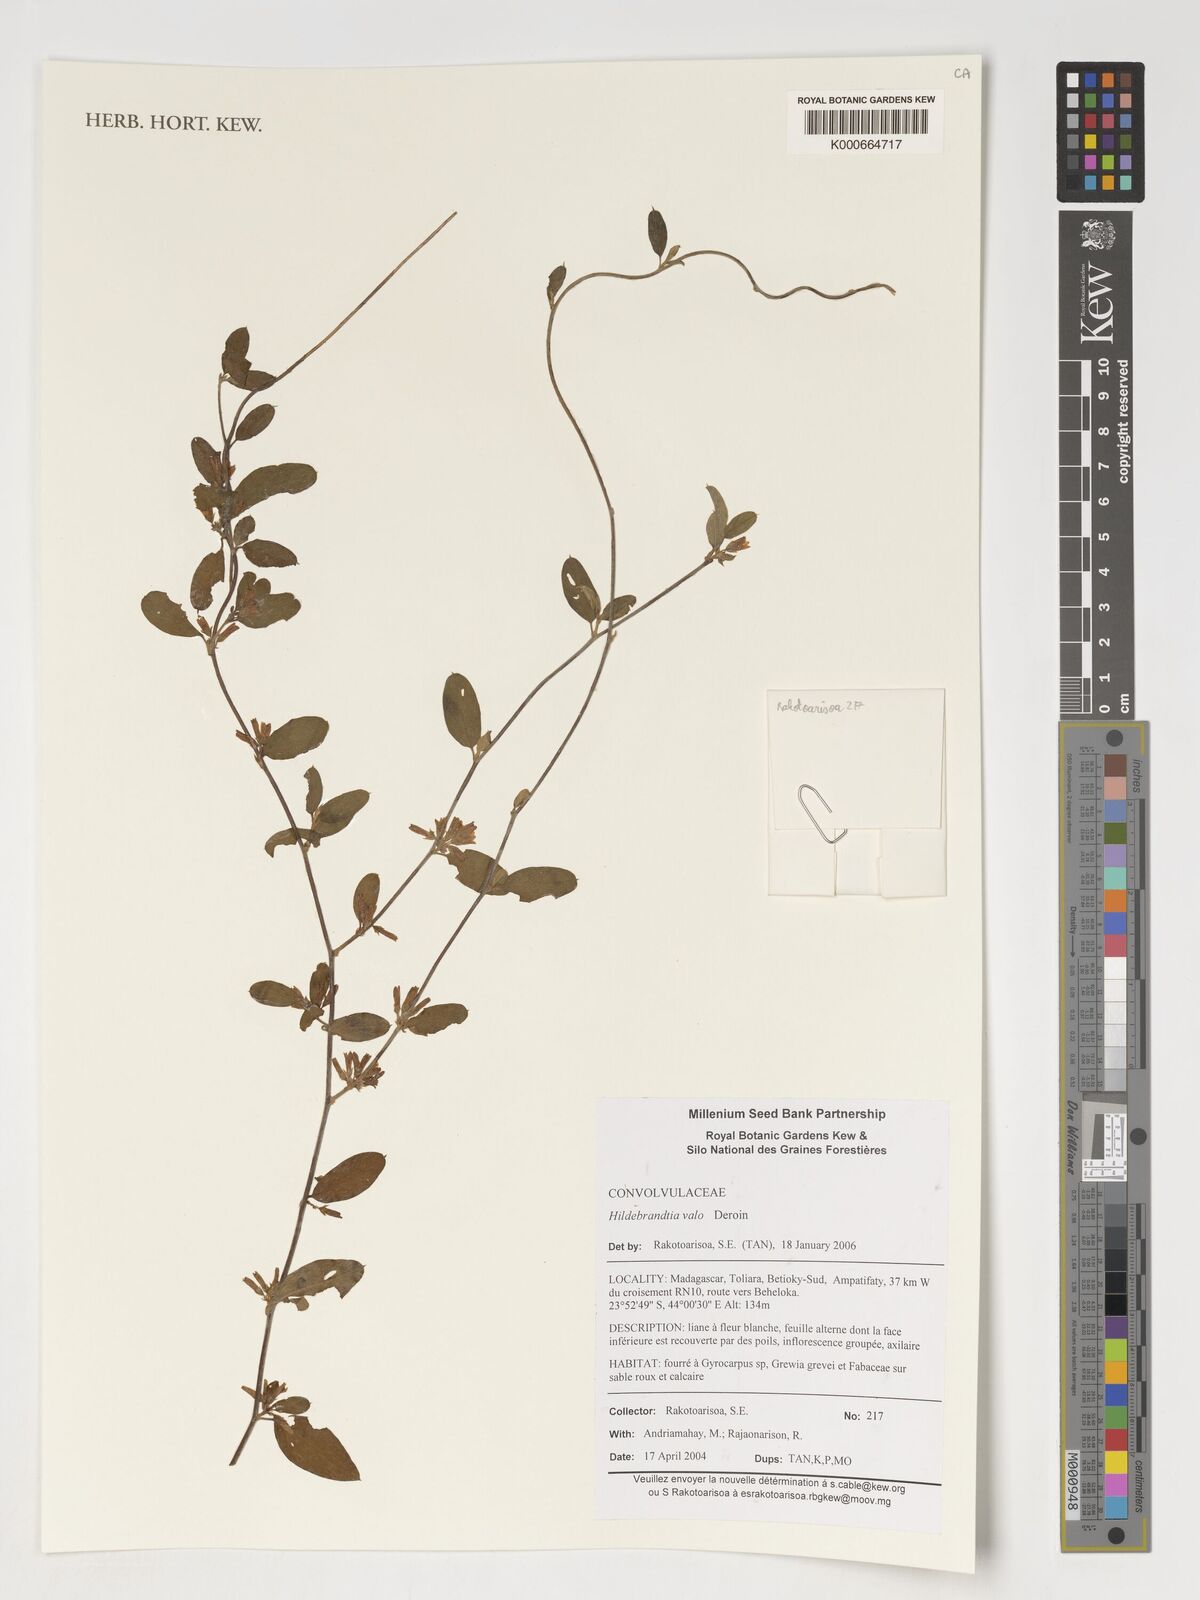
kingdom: Plantae
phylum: Tracheophyta
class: Magnoliopsida
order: Solanales
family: Convolvulaceae
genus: Hildebrandtia
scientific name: Hildebrandtia valo
